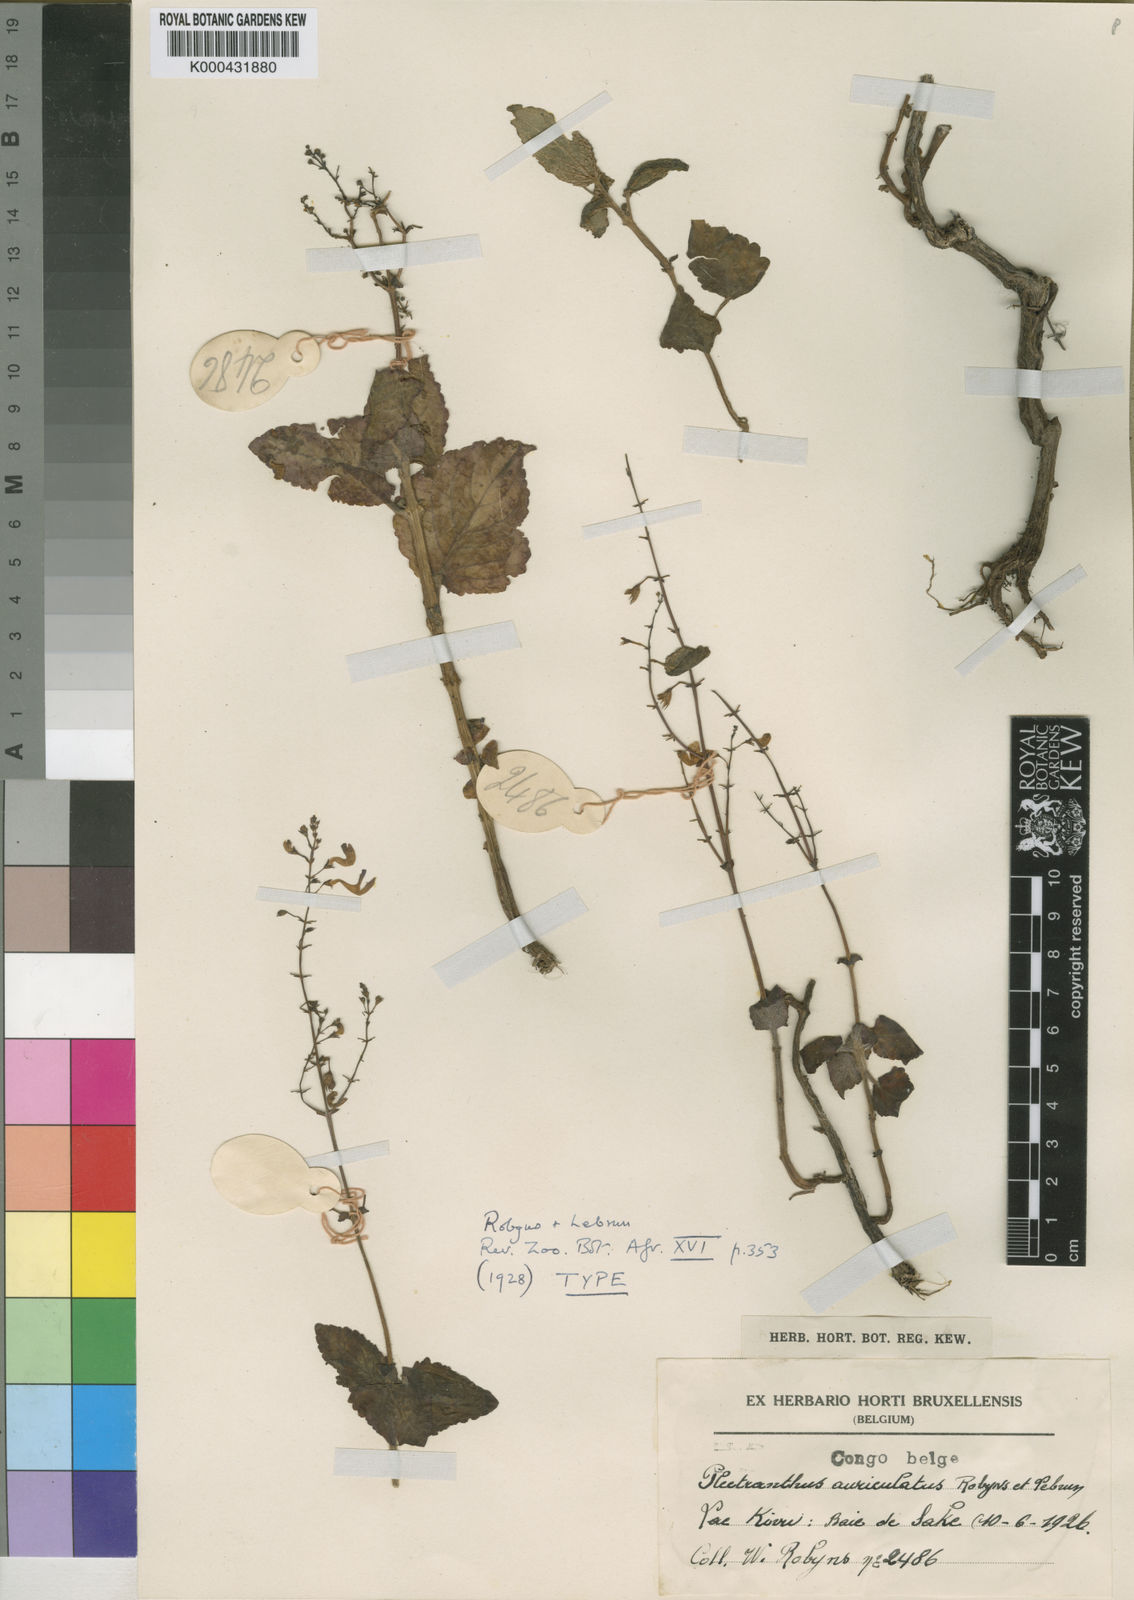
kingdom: Plantae
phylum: Tracheophyta
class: Magnoliopsida
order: Lamiales
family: Lamiaceae
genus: Equilabium
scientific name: Equilabium pauciflorum
